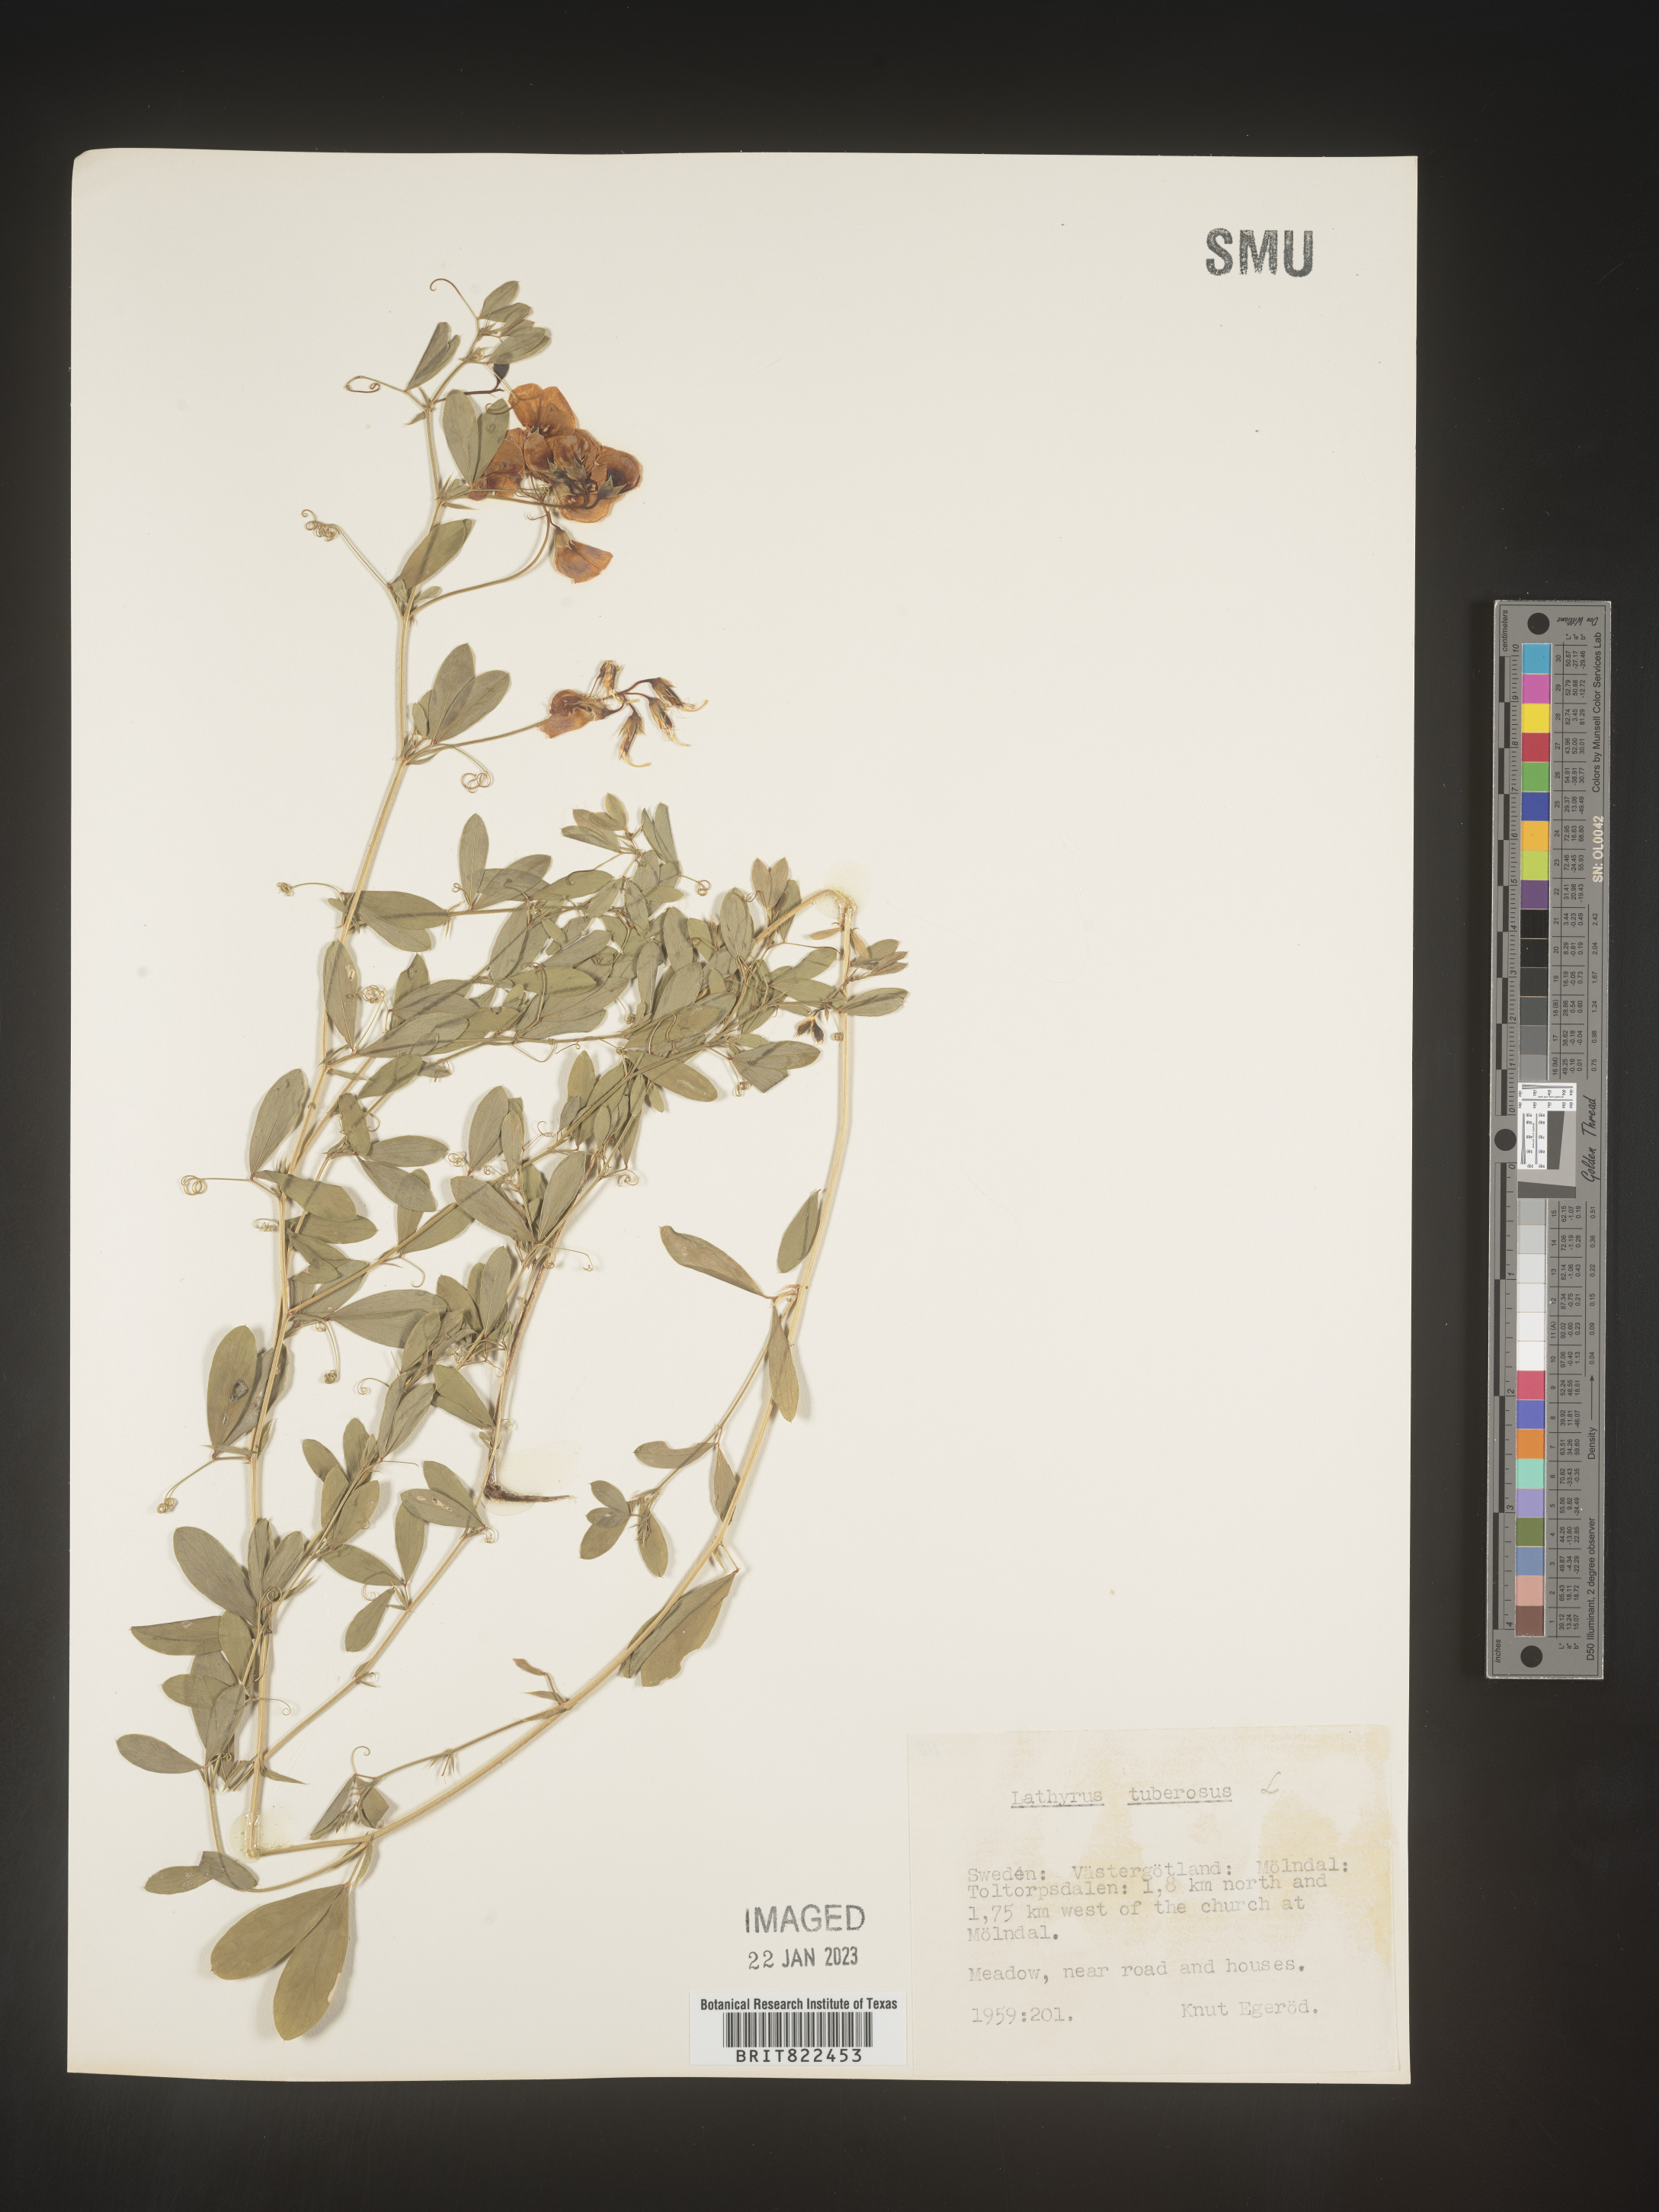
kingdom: Plantae
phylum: Tracheophyta
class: Magnoliopsida
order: Fabales
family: Fabaceae
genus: Lathyrus
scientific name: Lathyrus
